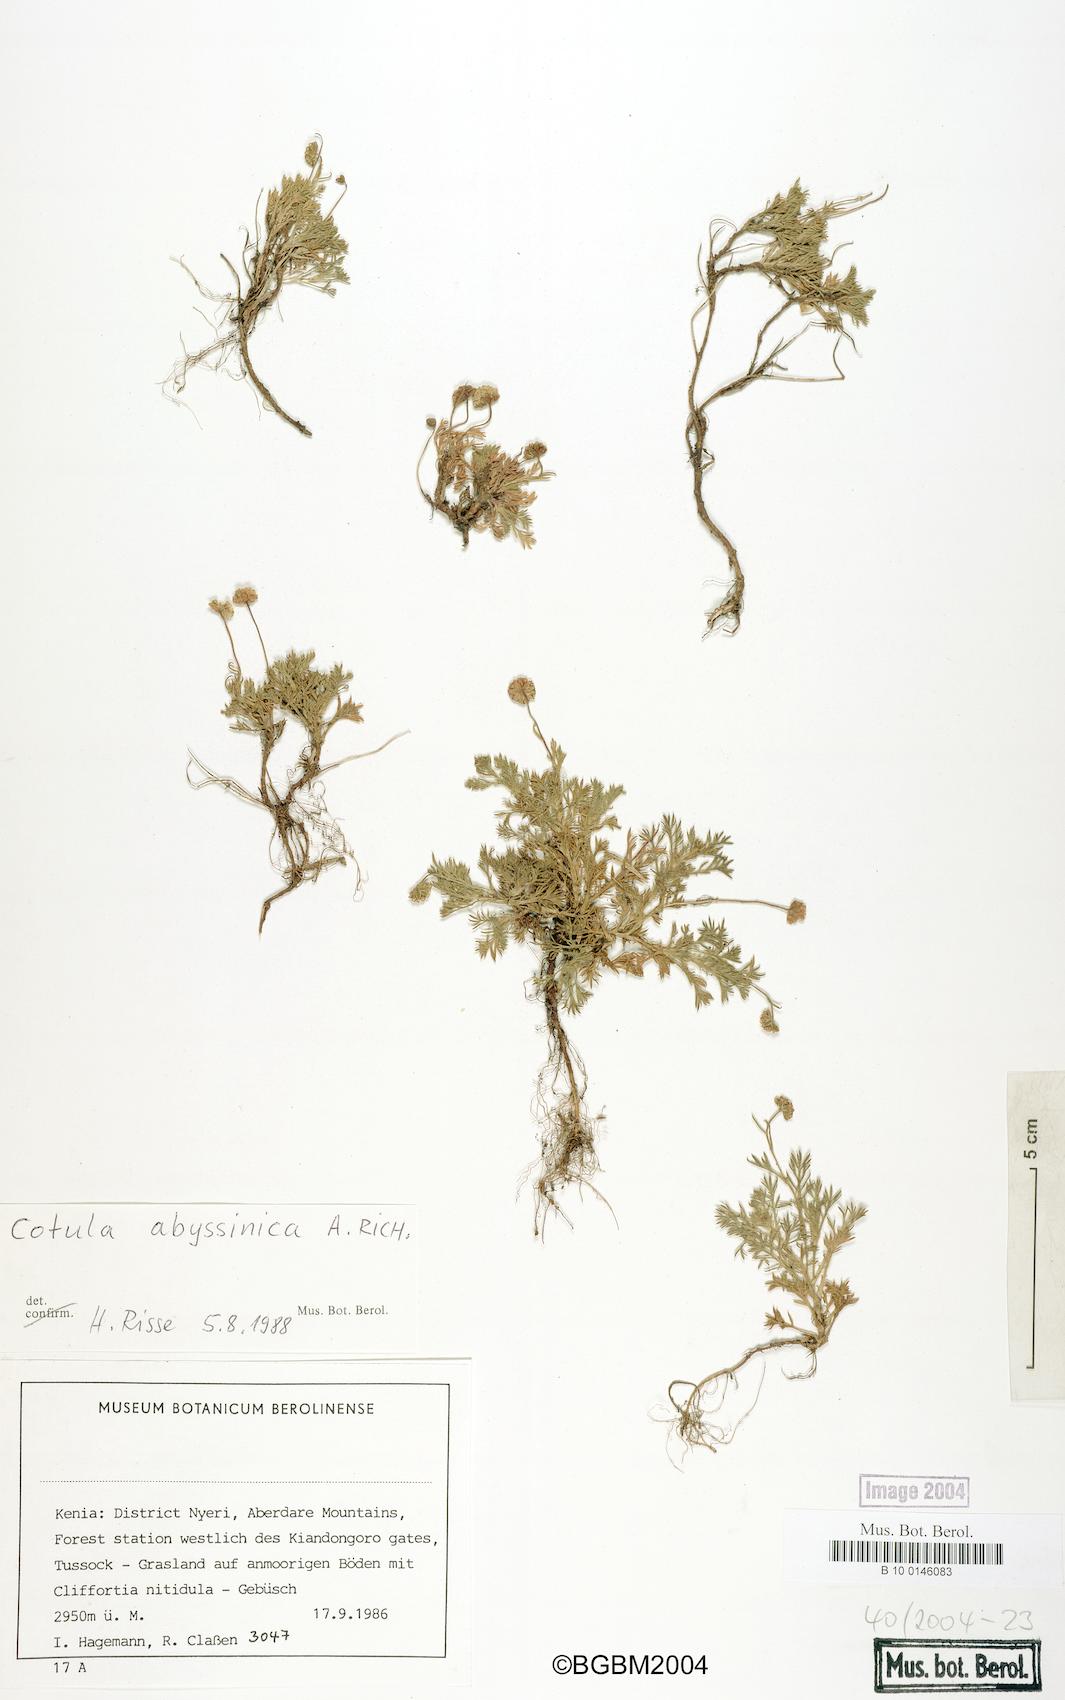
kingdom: Plantae
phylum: Tracheophyta
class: Magnoliopsida
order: Asterales
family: Asteraceae
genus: Cotula
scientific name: Cotula abyssinica
